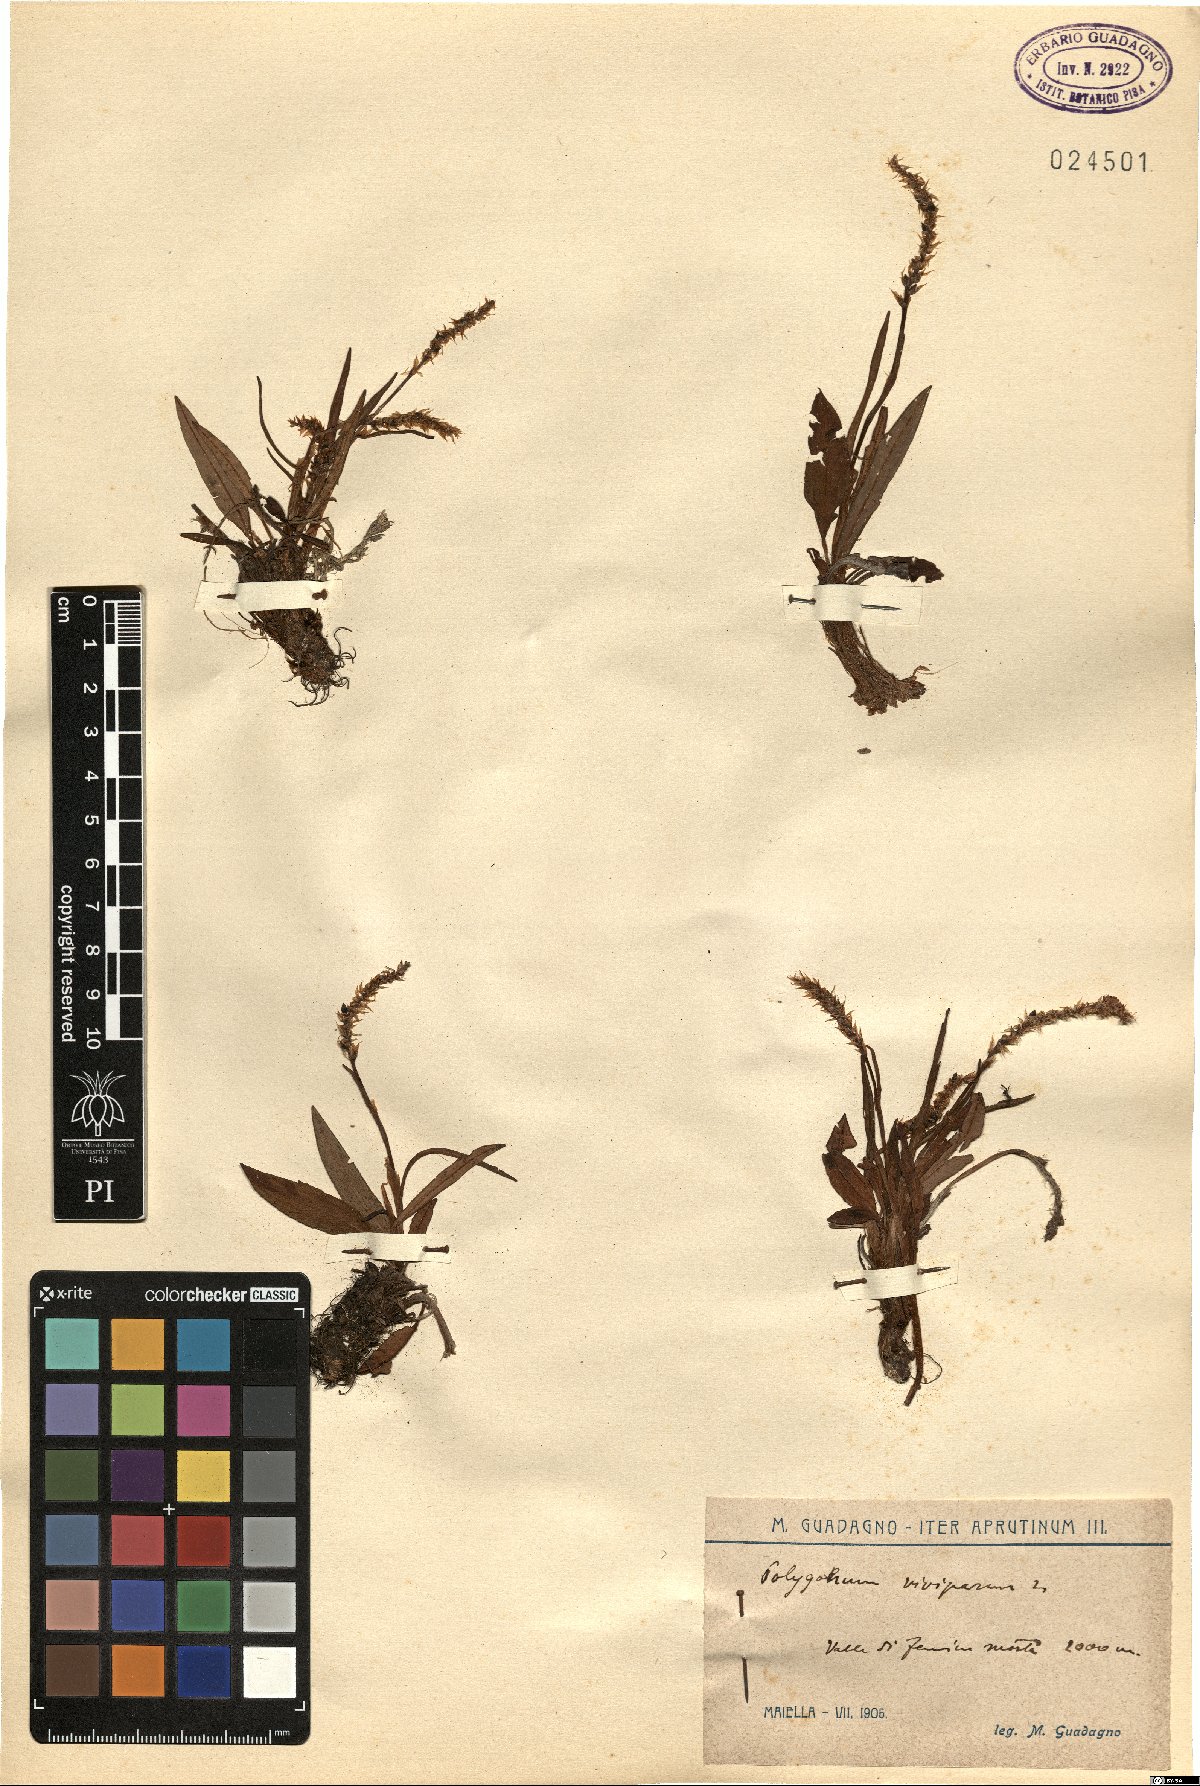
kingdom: Plantae
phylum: Tracheophyta
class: Magnoliopsida
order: Caryophyllales
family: Polygonaceae
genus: Bistorta
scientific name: Bistorta vivipara
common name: Alpine bistort
